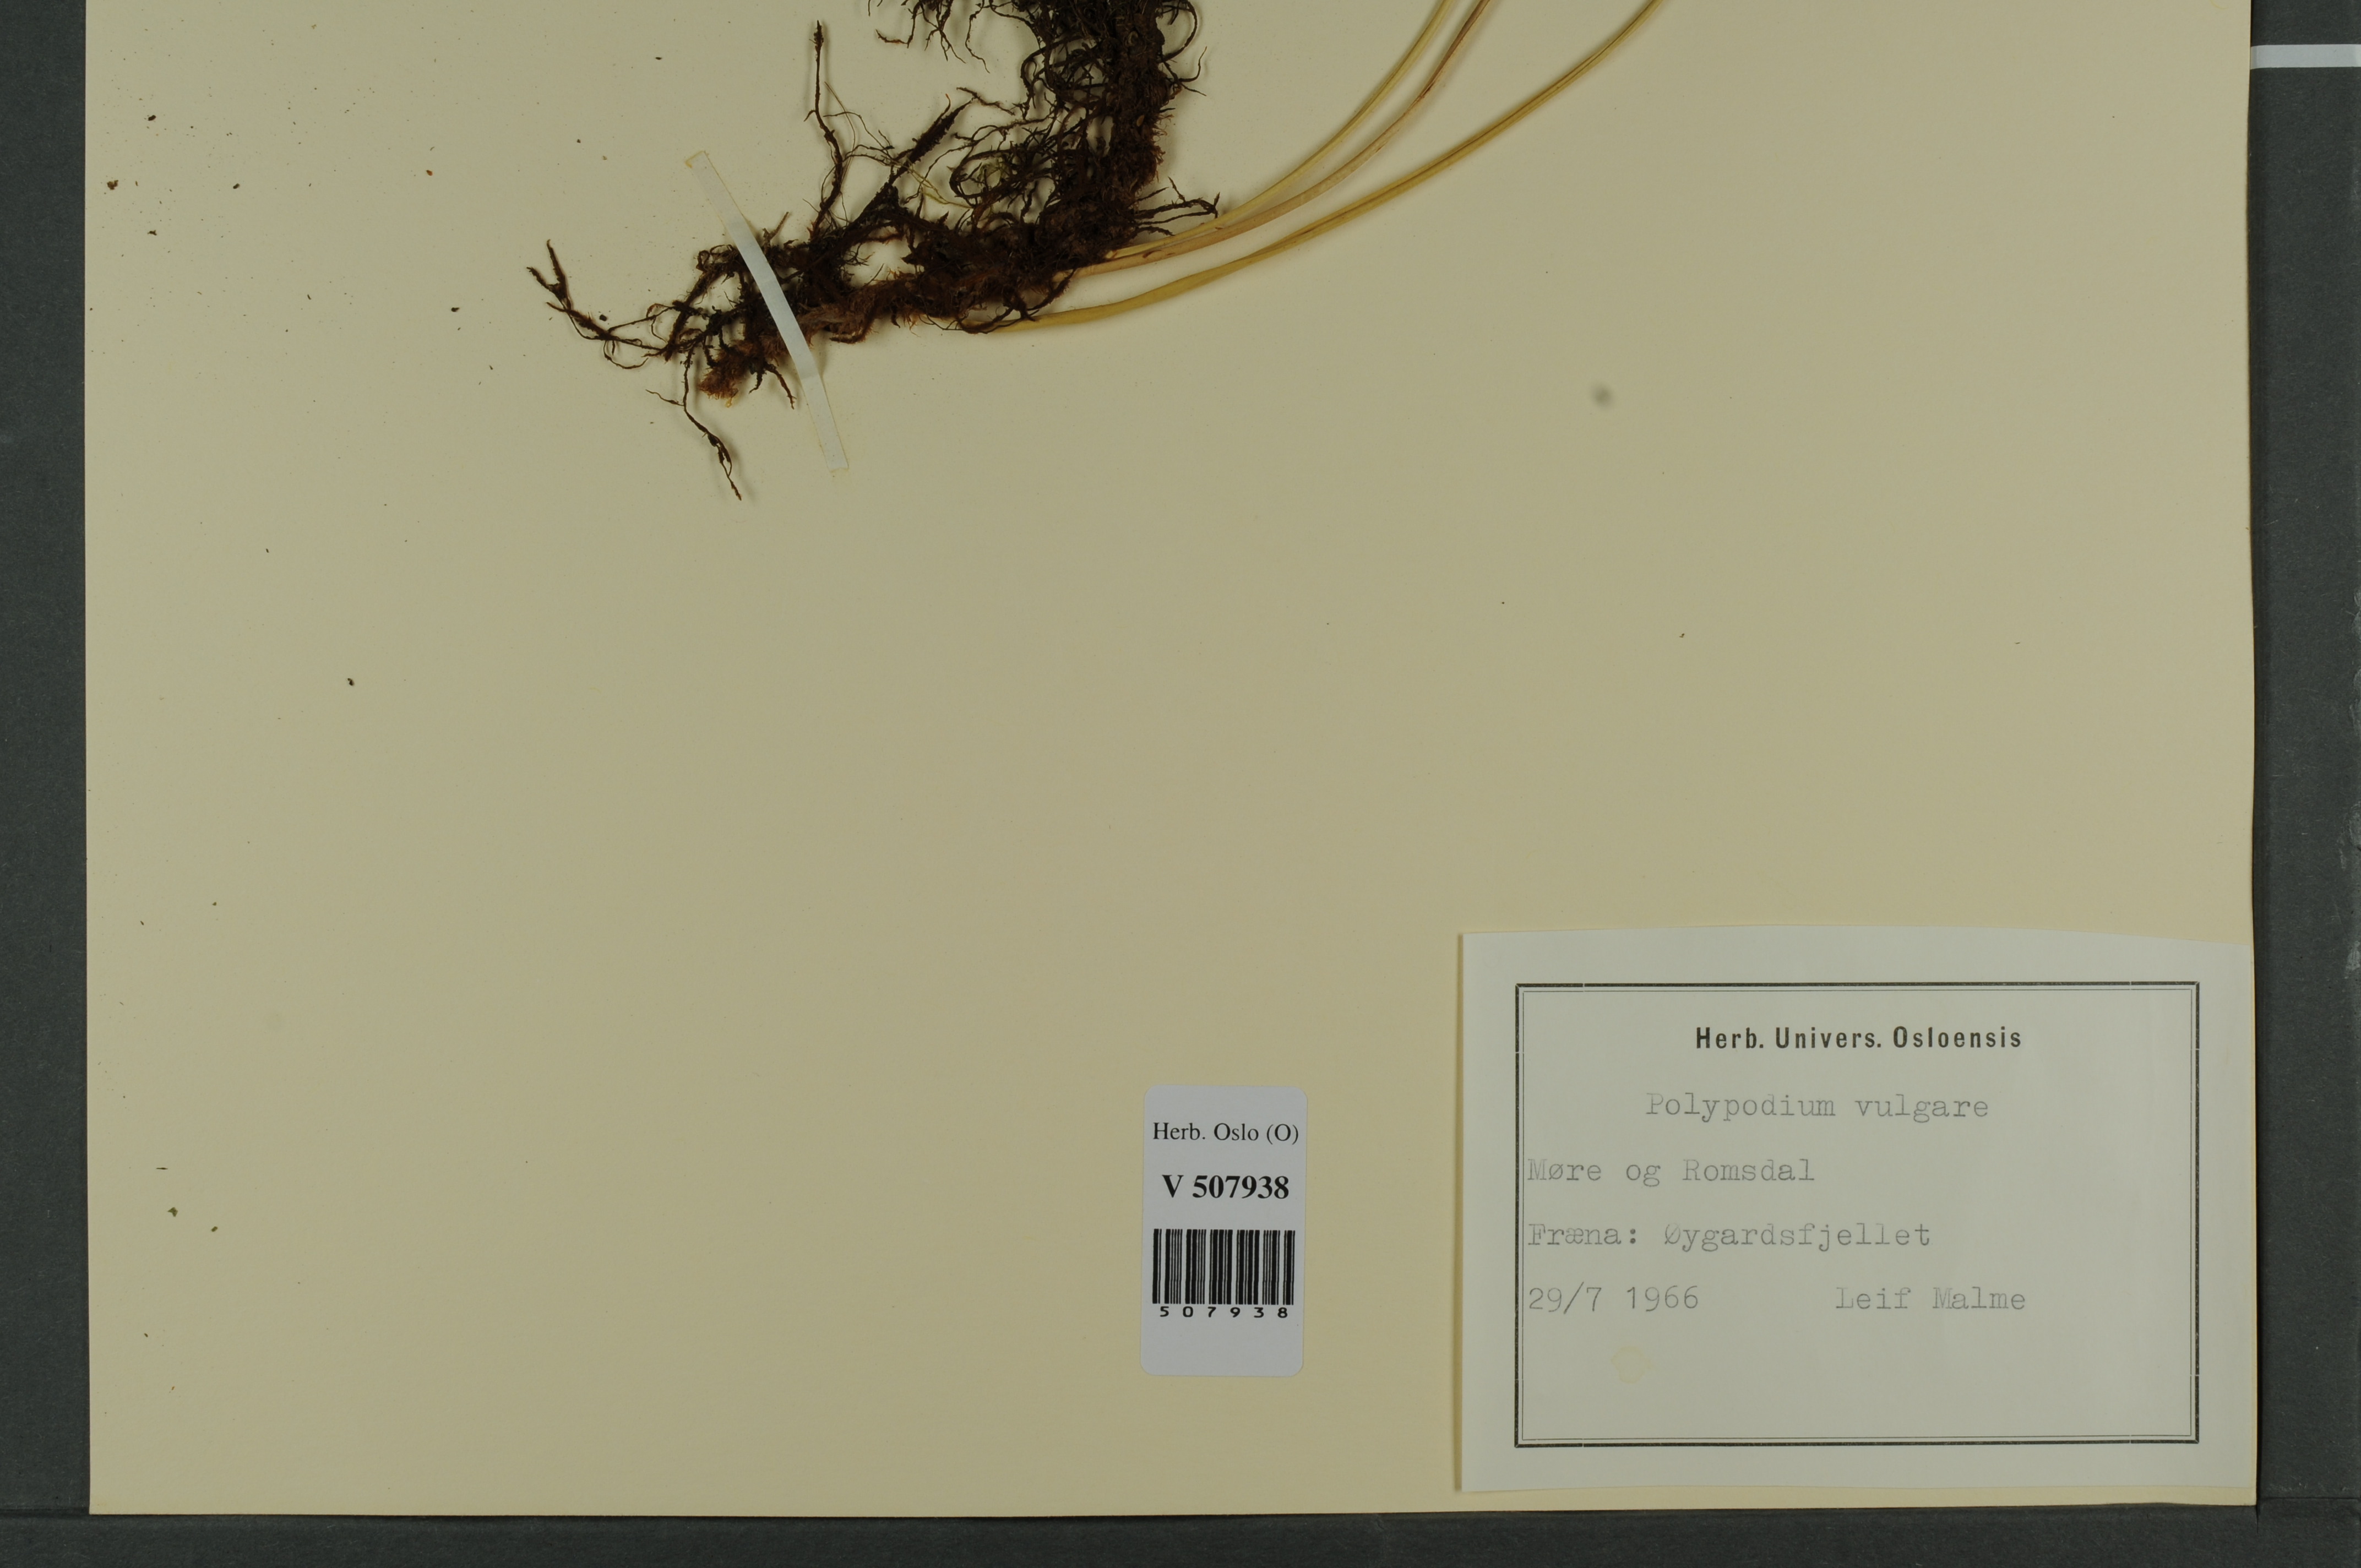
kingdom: Plantae
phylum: Tracheophyta
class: Polypodiopsida
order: Polypodiales
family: Polypodiaceae
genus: Polypodium
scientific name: Polypodium vulgare
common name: Common polypody
